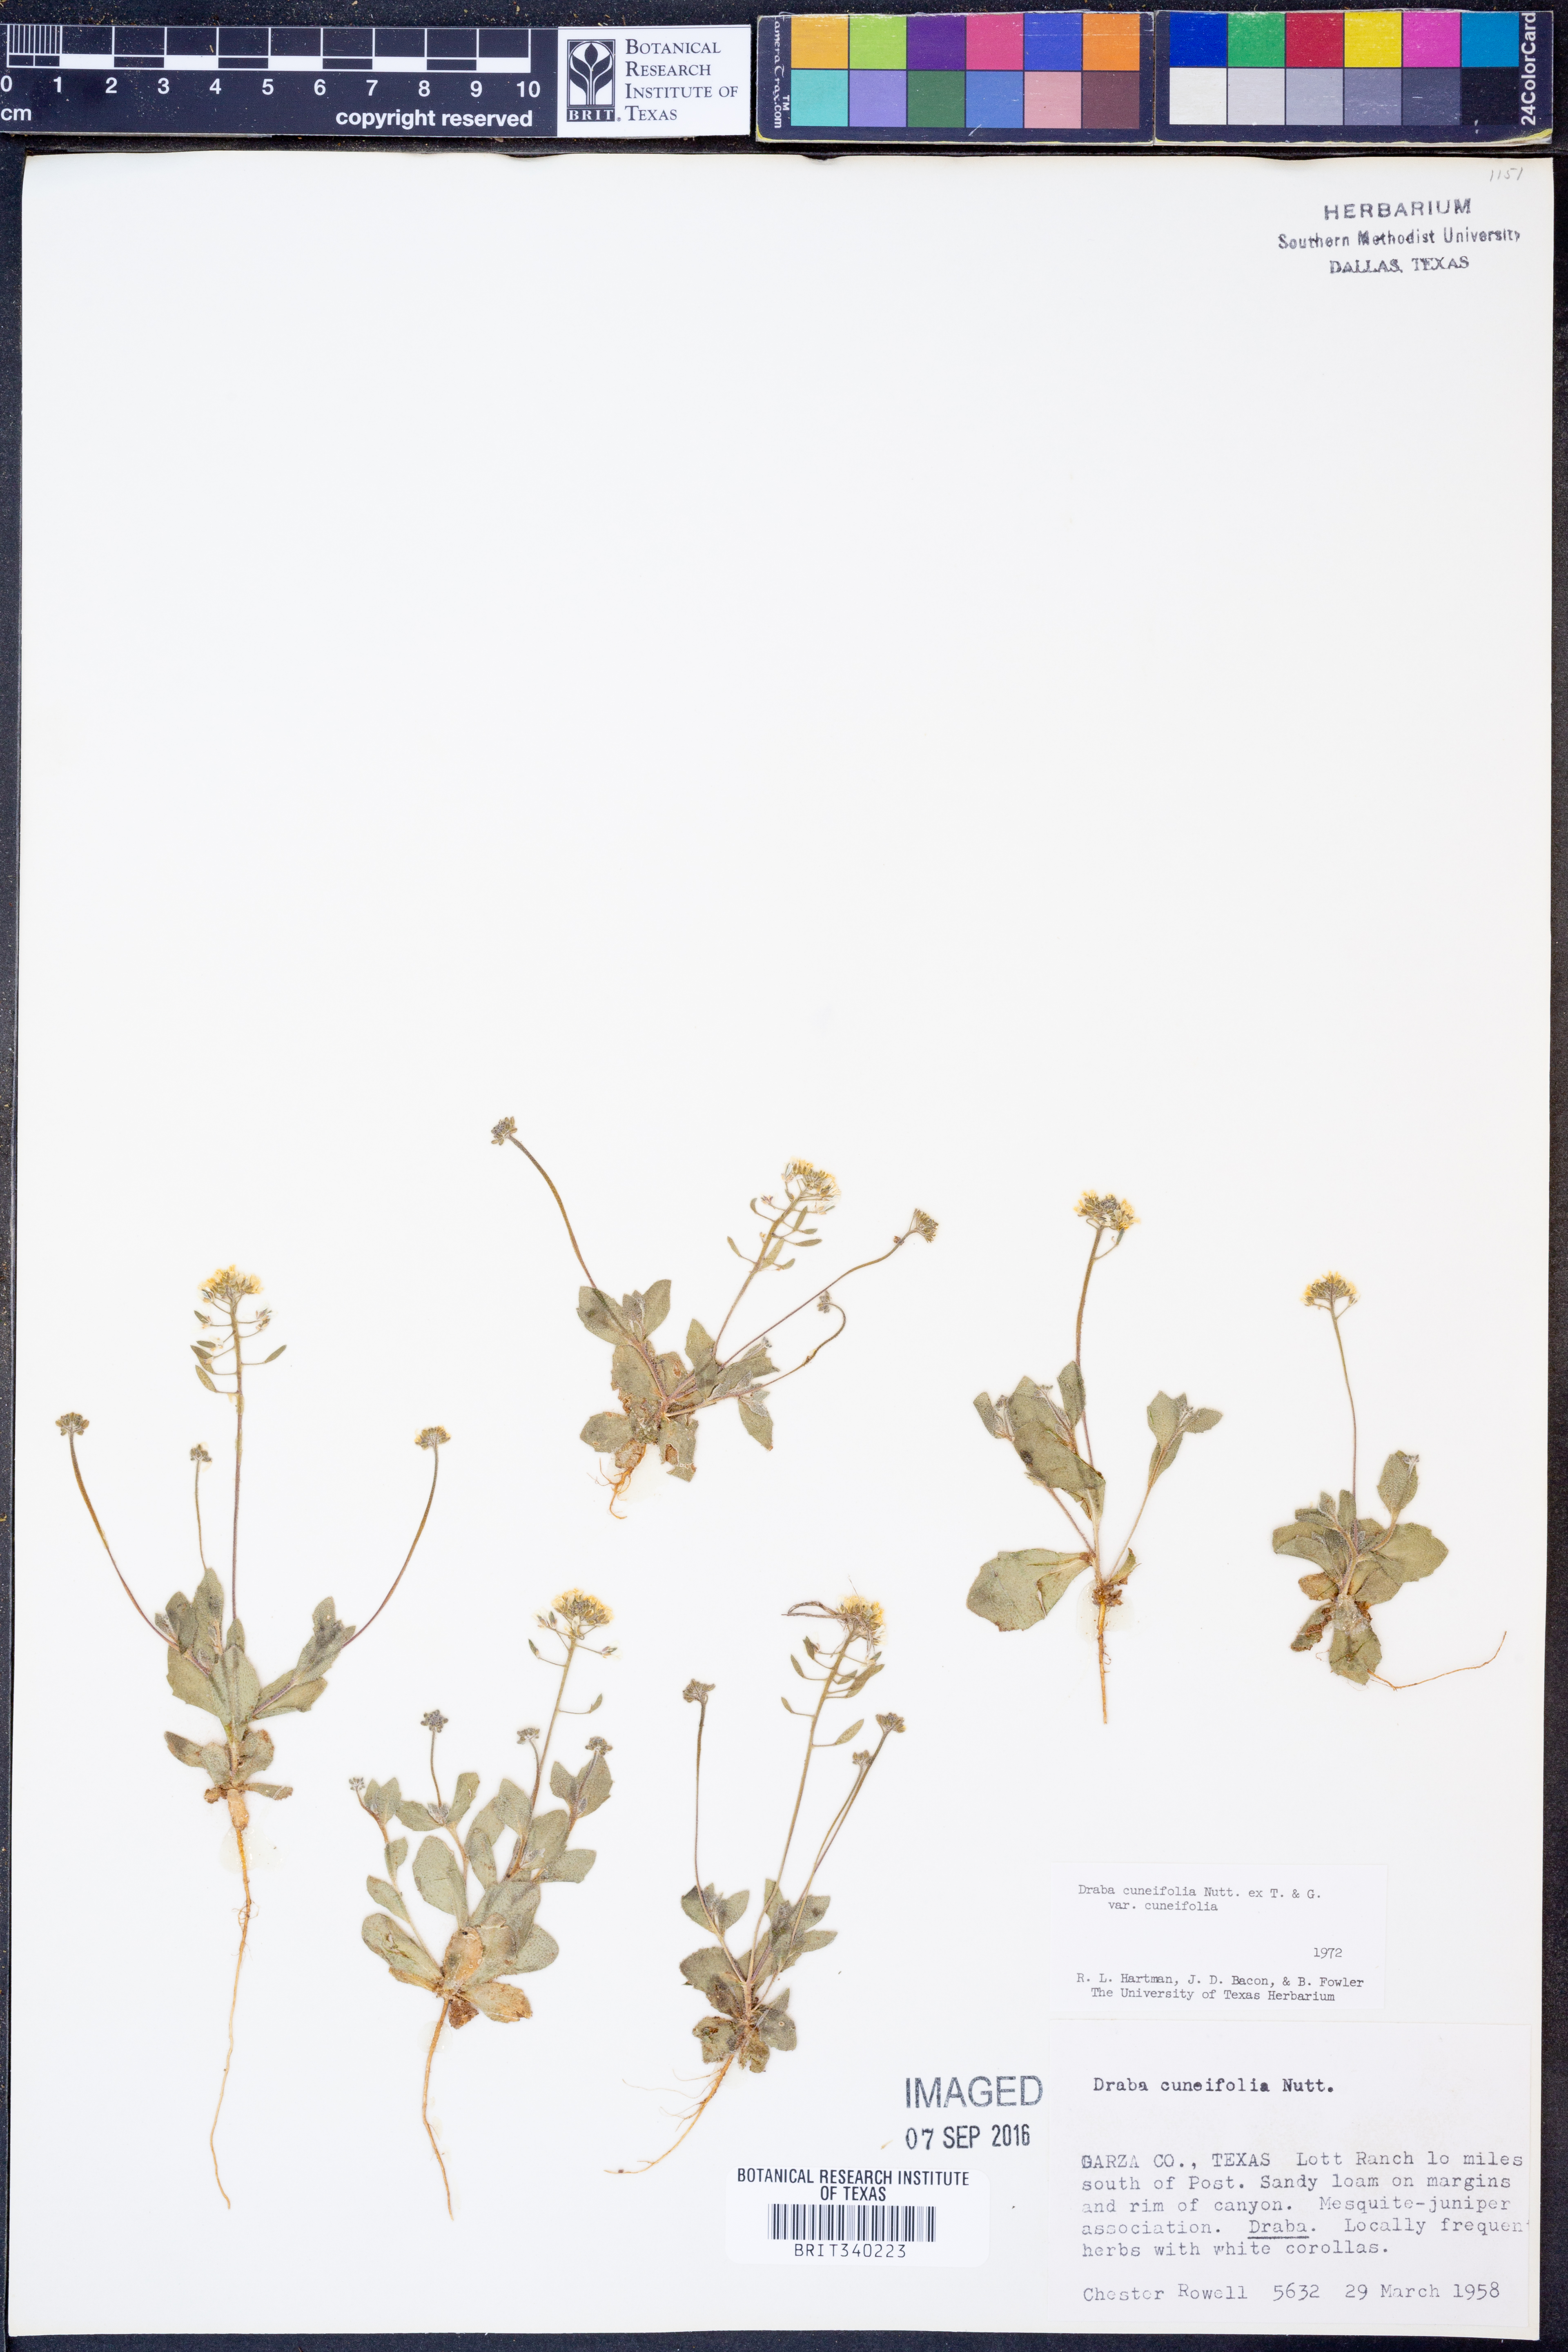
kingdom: Plantae
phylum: Tracheophyta
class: Magnoliopsida
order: Brassicales
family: Brassicaceae
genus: Tomostima
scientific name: Tomostima cuneifolia
